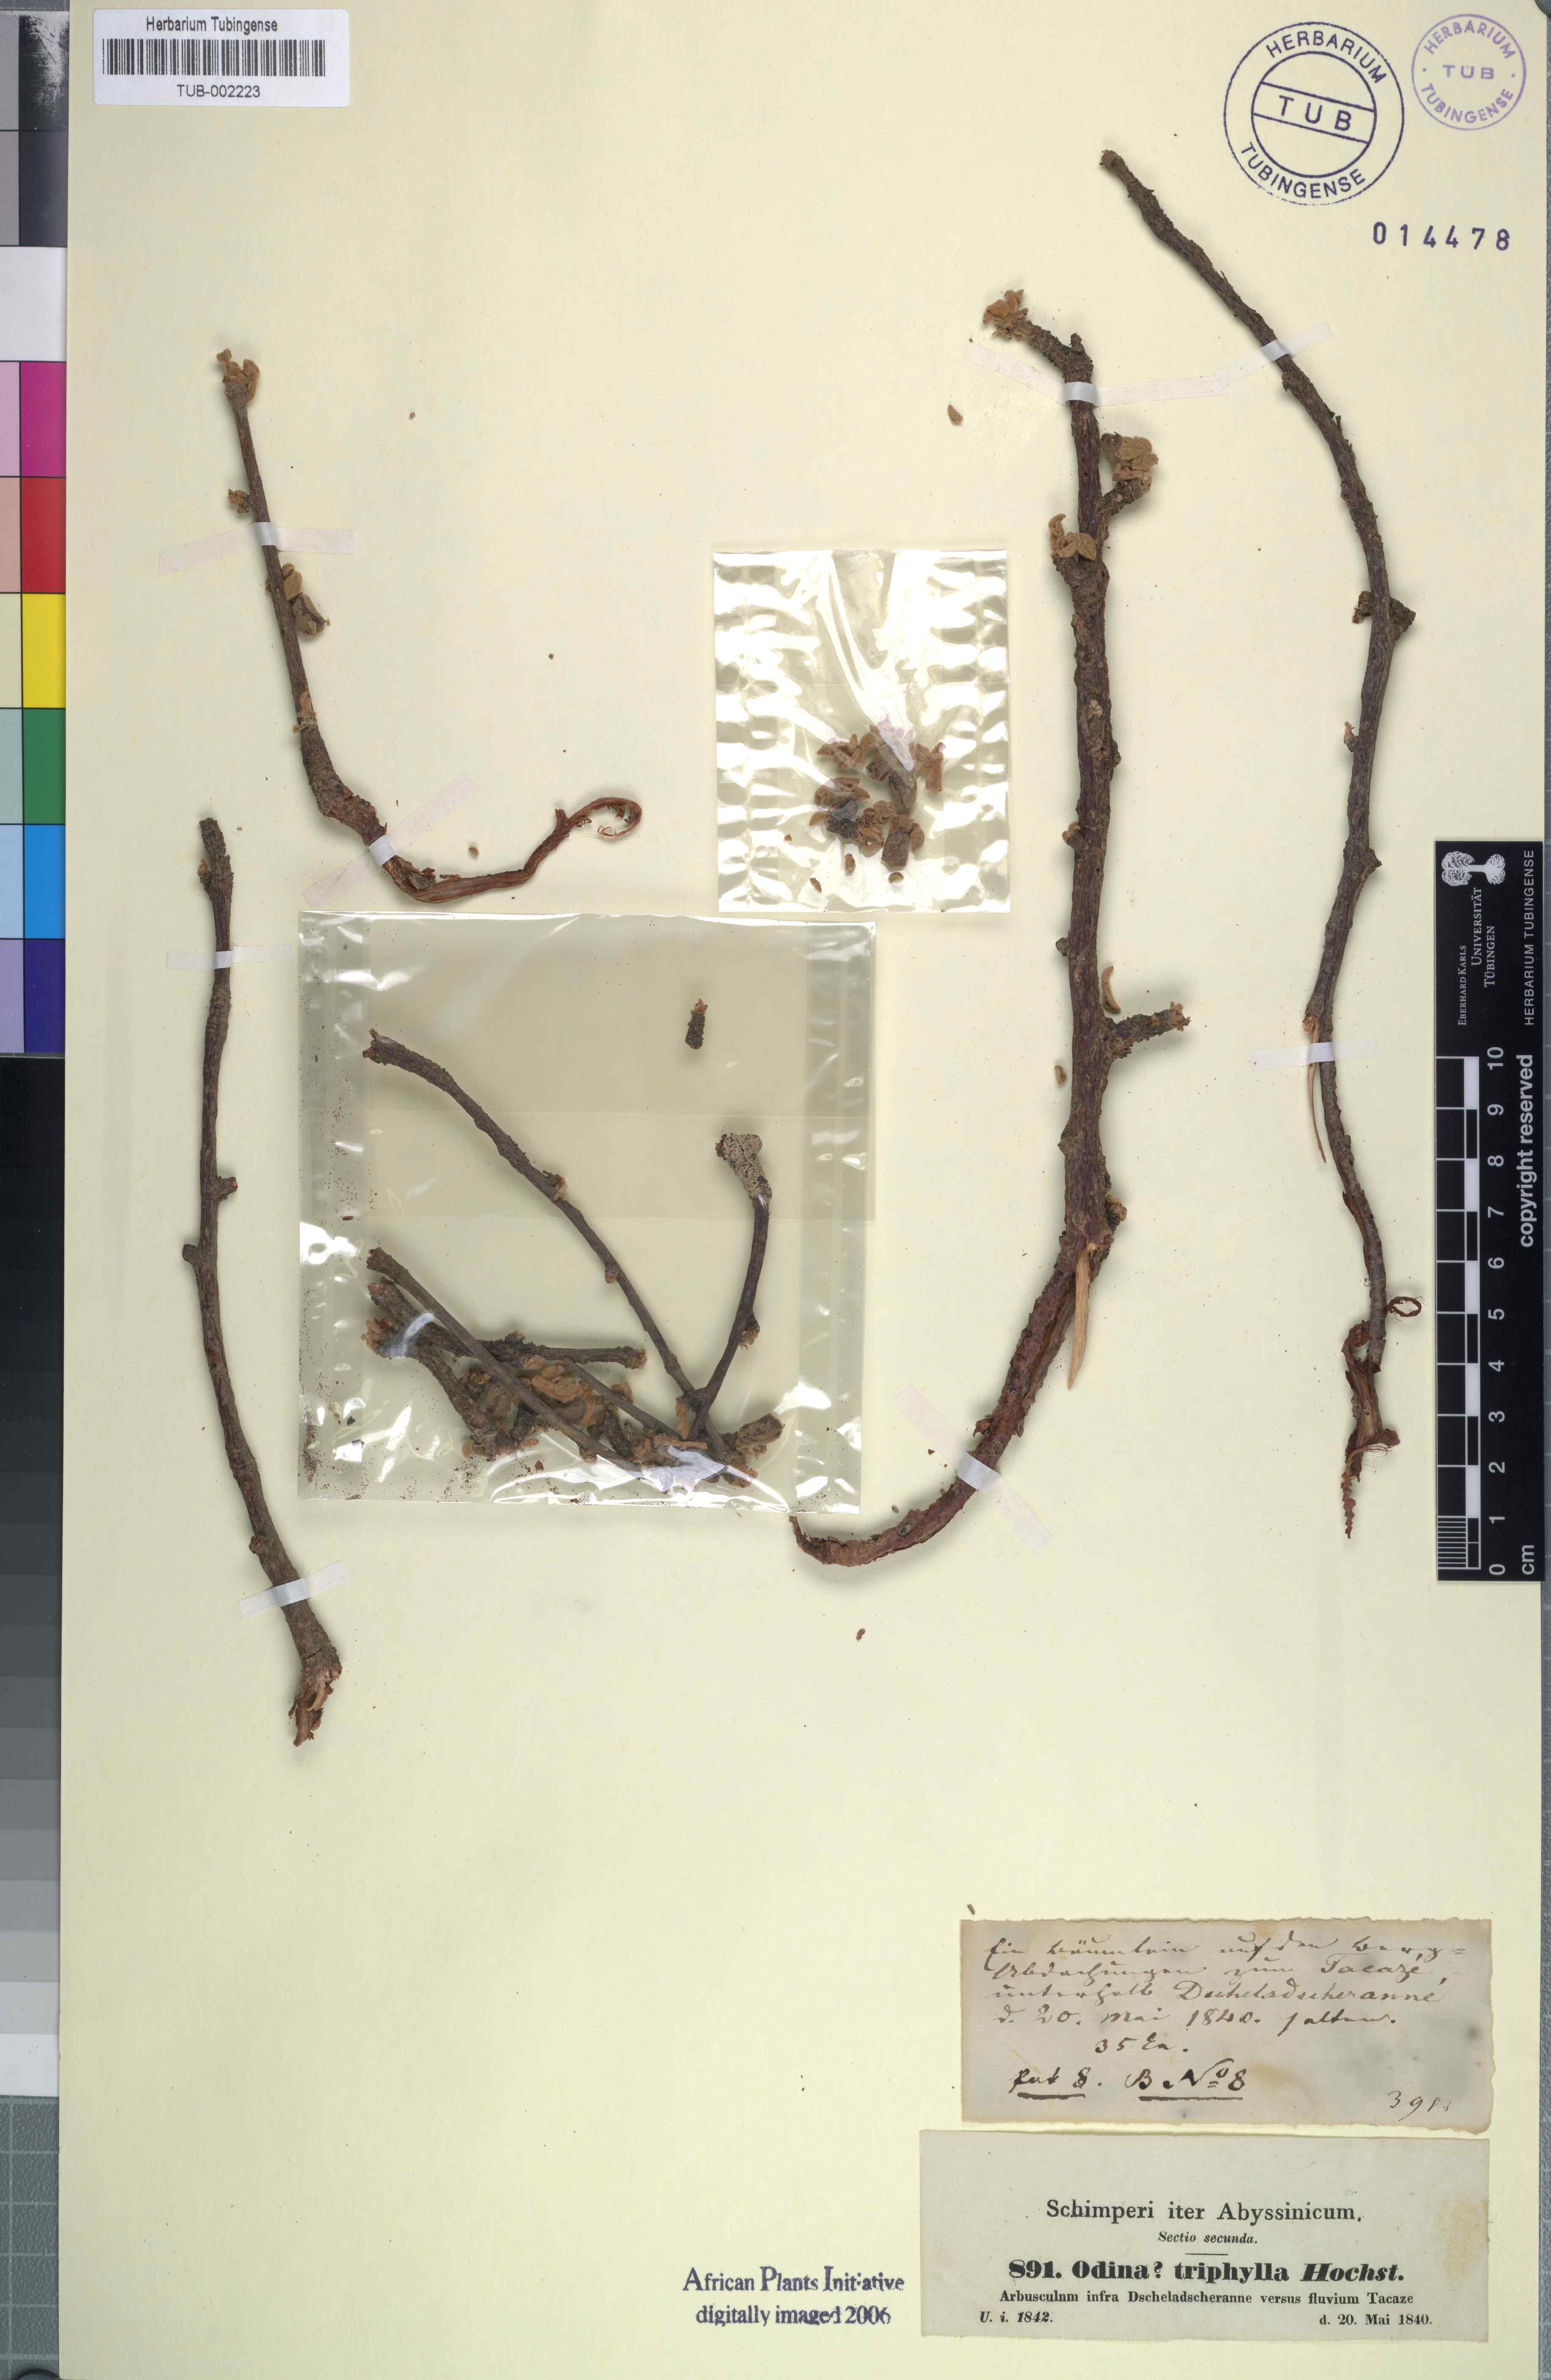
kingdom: Plantae
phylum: Tracheophyta
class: Magnoliopsida
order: Sapindales
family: Anacardiaceae
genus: Lannea
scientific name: Lannea triphylla
